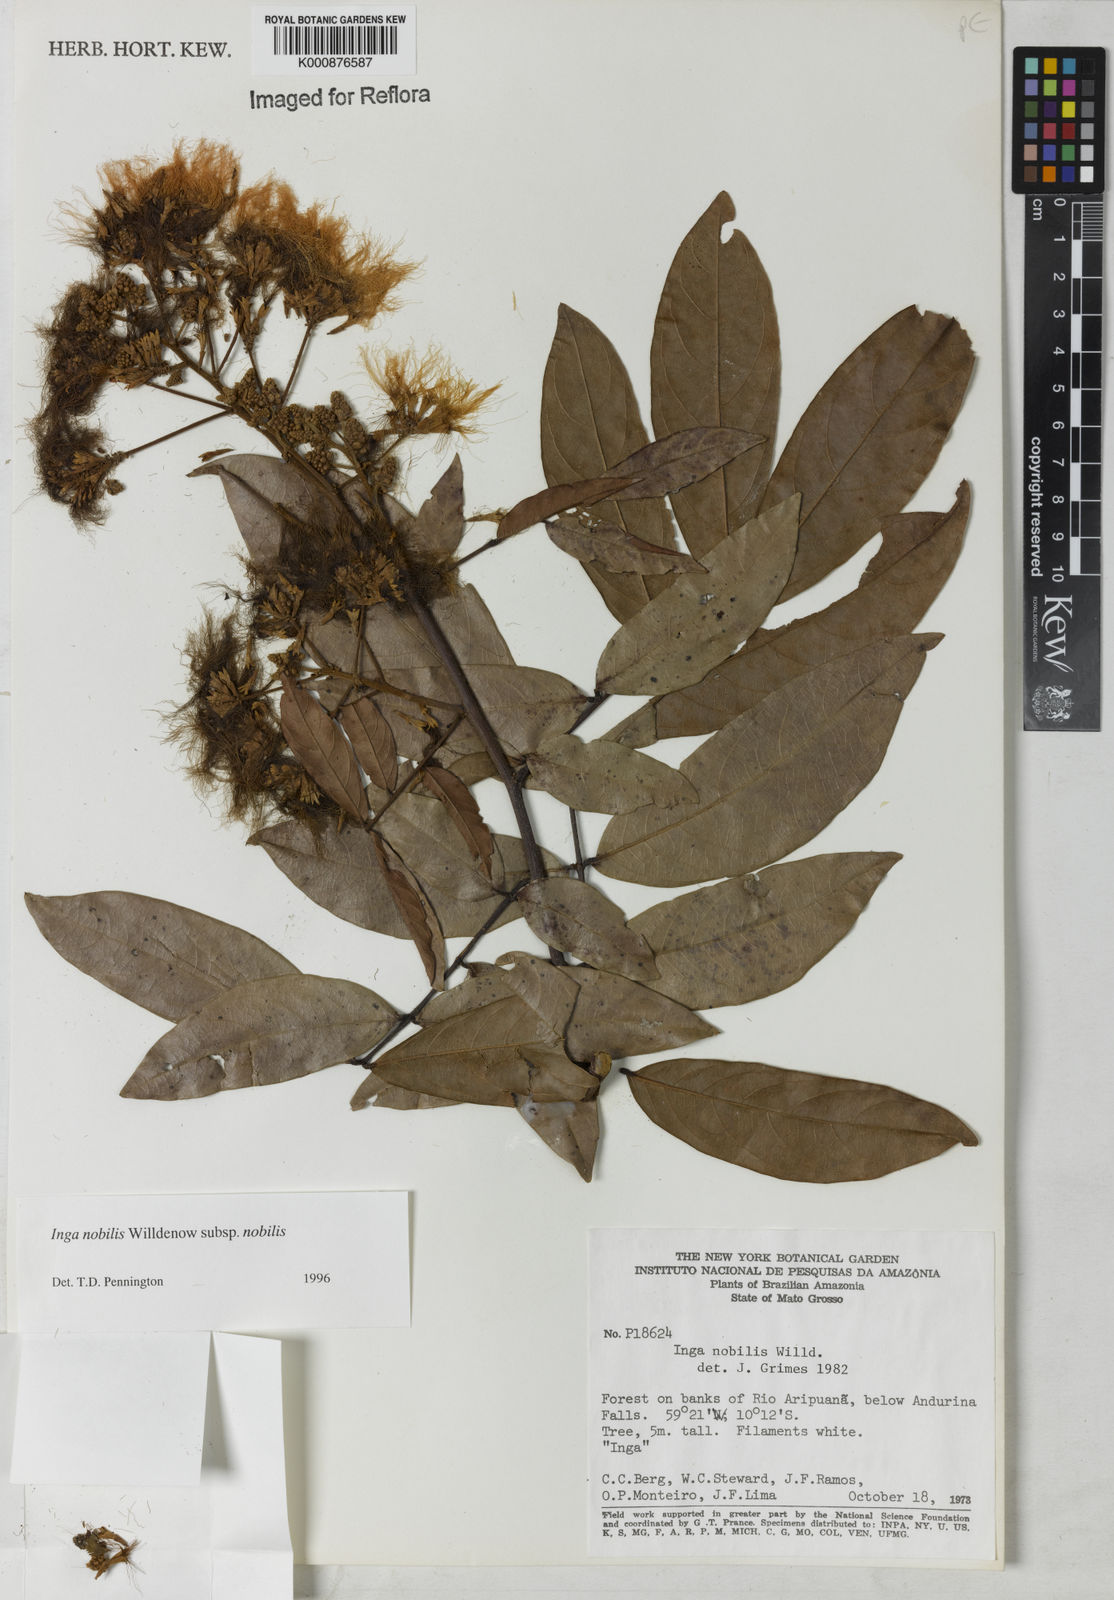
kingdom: Plantae
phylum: Tracheophyta
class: Magnoliopsida
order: Fabales
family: Fabaceae
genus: Inga
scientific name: Inga nobilis
